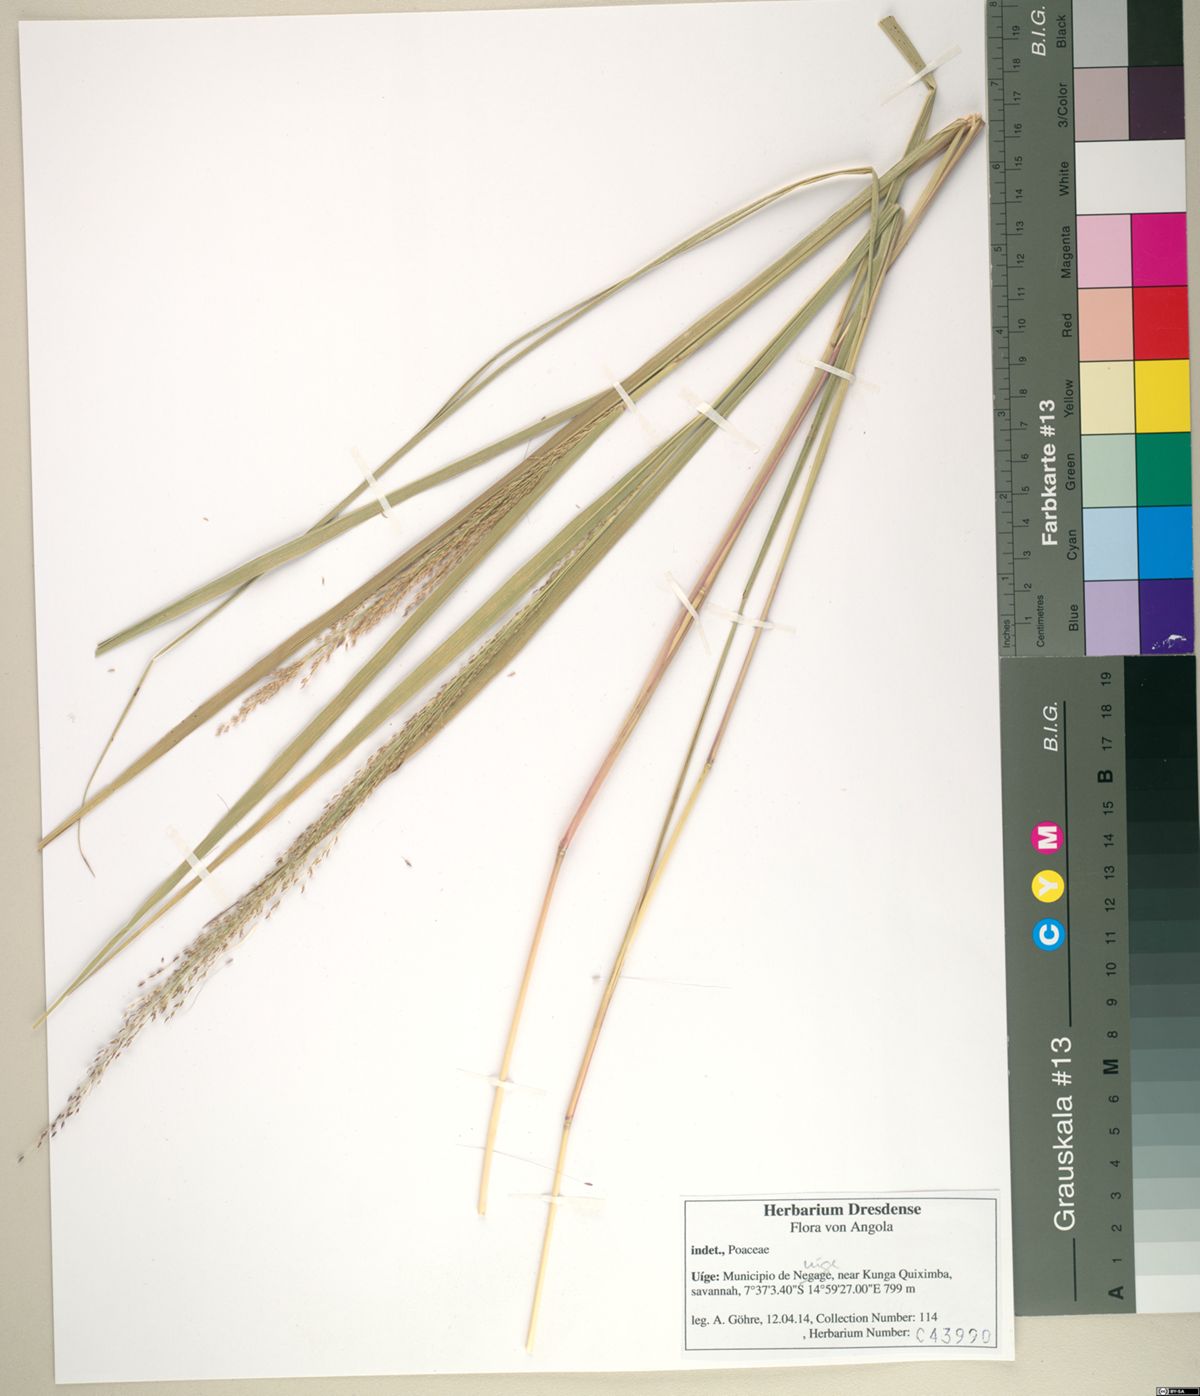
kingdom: Plantae
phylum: Tracheophyta
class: Liliopsida
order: Poales
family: Poaceae
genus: Panicum
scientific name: Panicum phragmitoides
